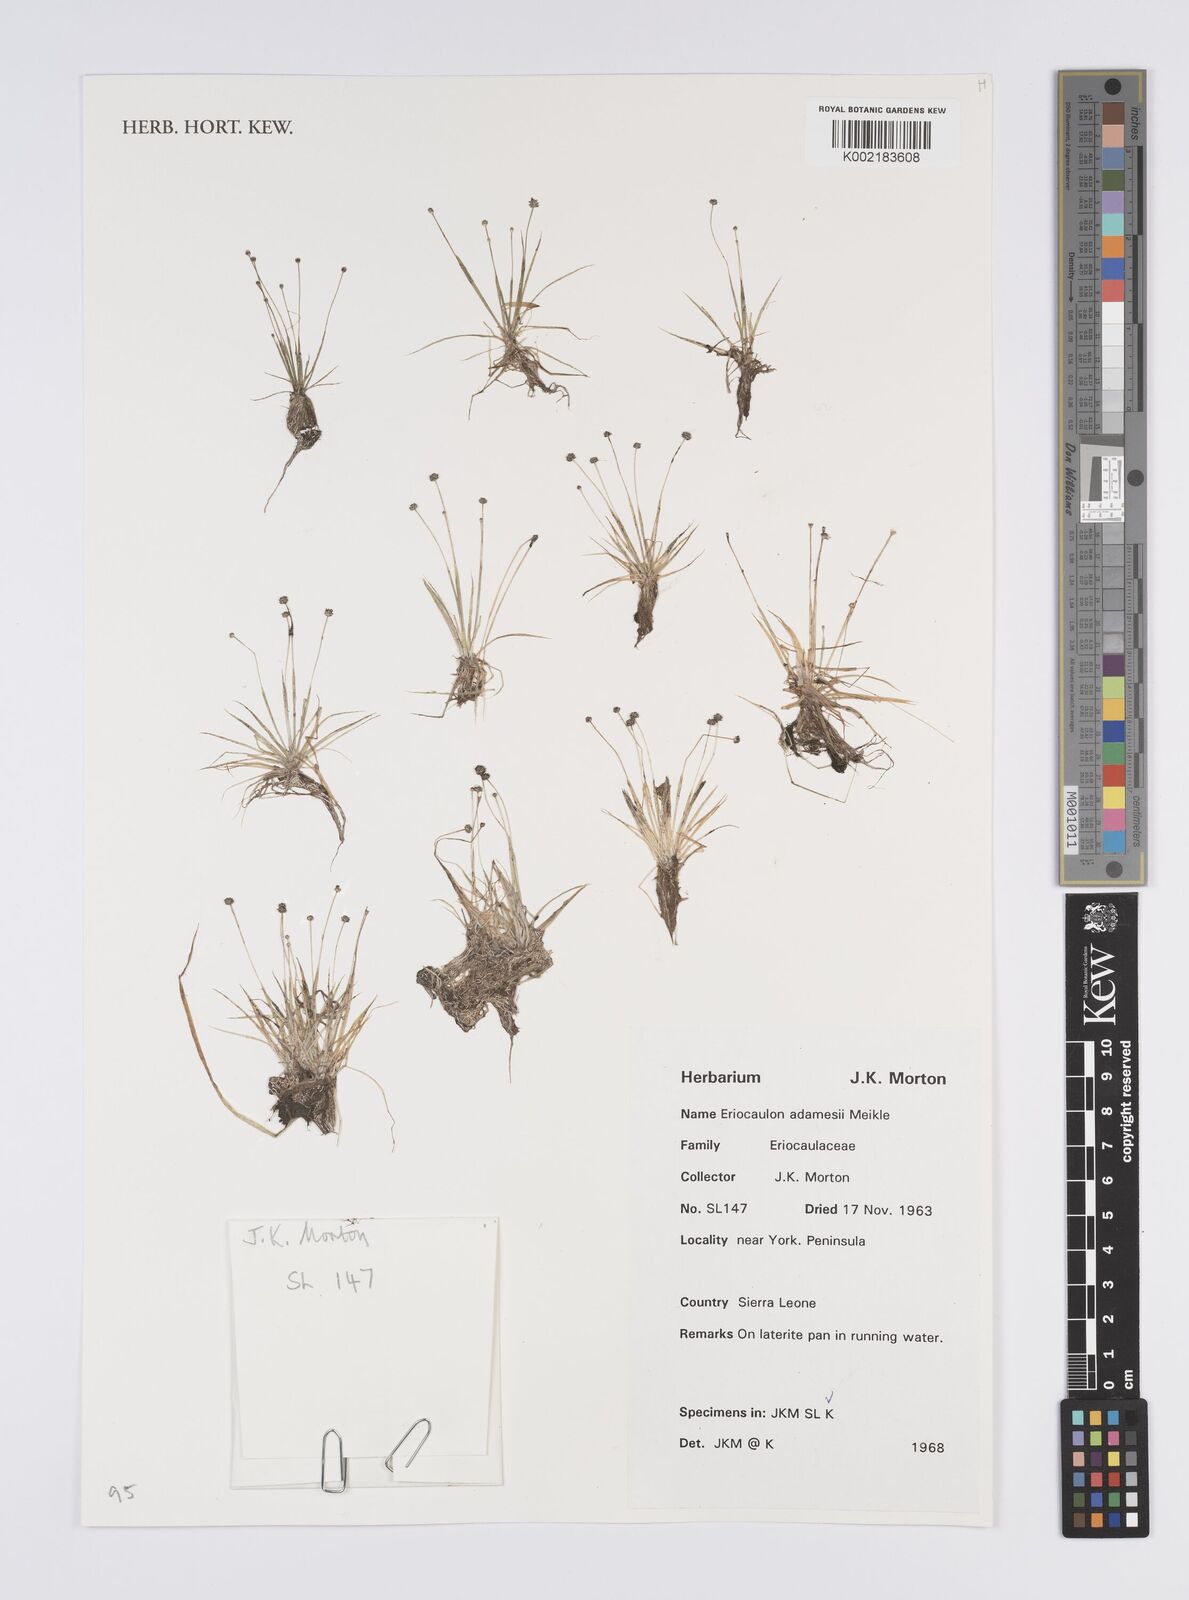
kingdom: Plantae
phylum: Tracheophyta
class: Liliopsida
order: Poales
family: Eriocaulaceae
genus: Eriocaulon
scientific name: Eriocaulon adamesii
